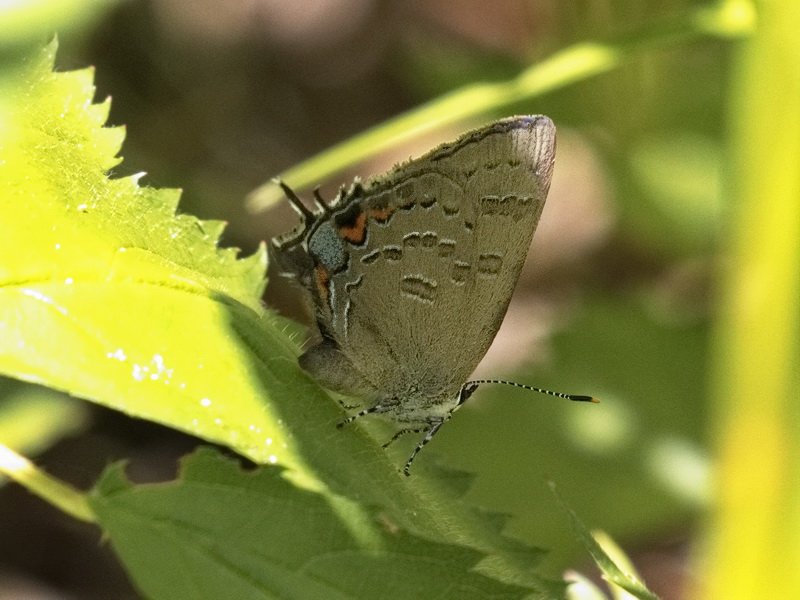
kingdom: Animalia
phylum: Arthropoda
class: Insecta
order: Lepidoptera
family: Lycaenidae
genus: Satyrium
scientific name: Satyrium calanus
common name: Banded Hairstreak
